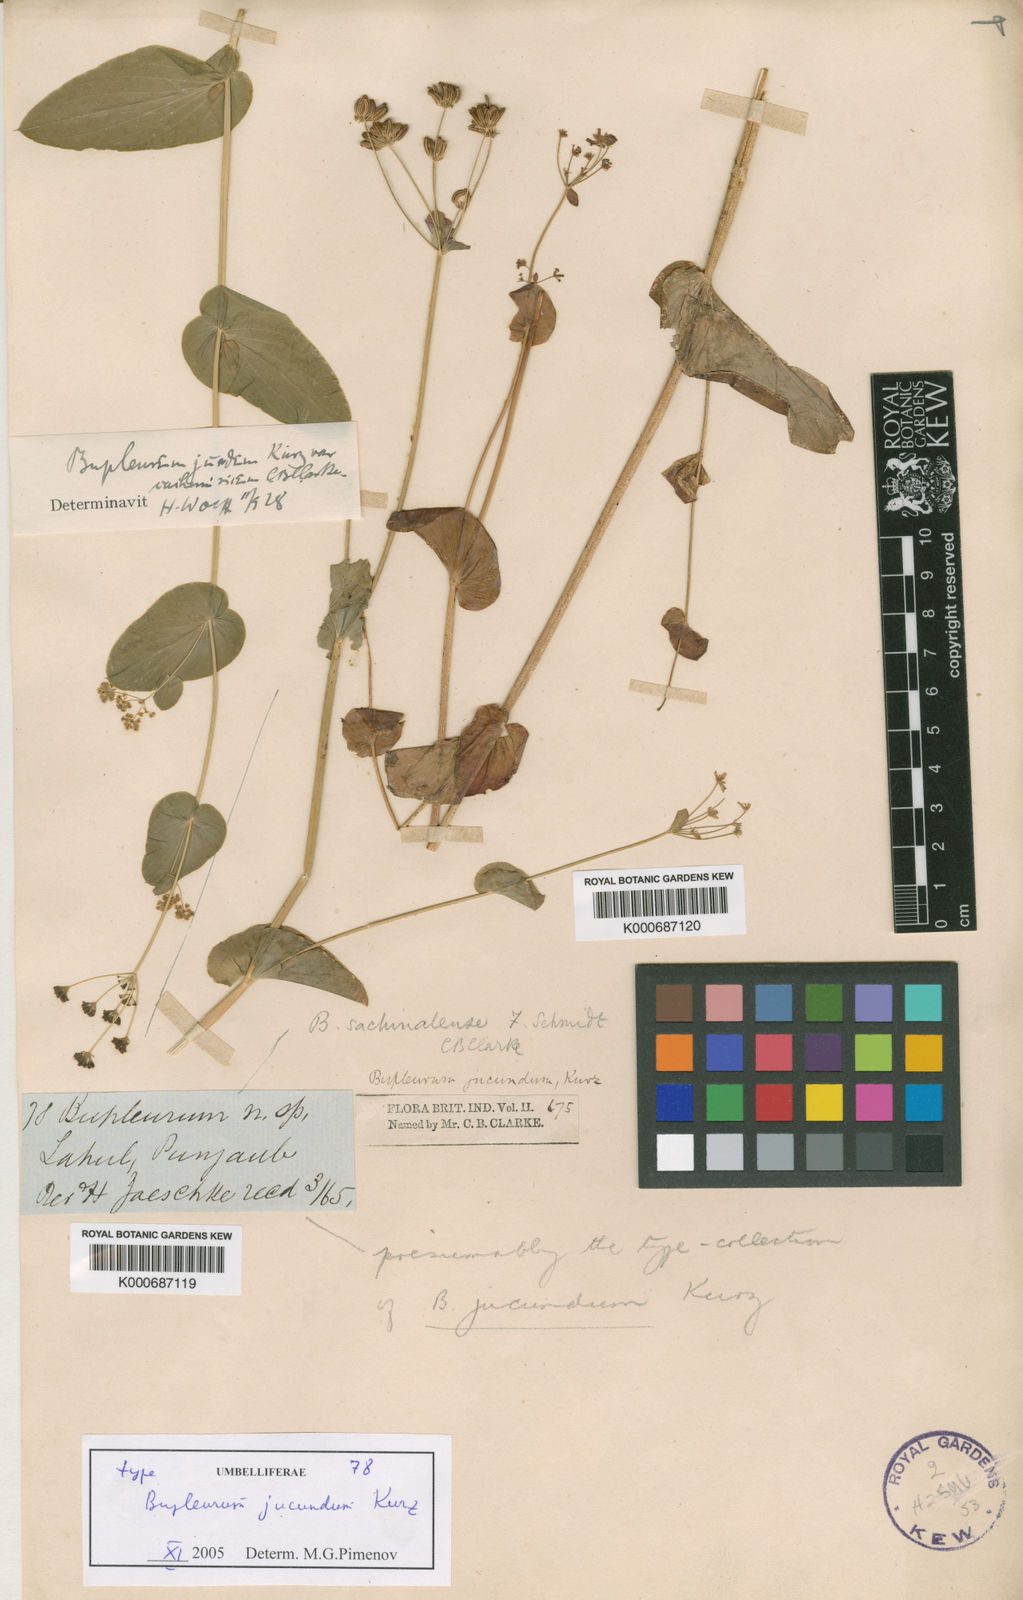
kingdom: Plantae
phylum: Tracheophyta
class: Magnoliopsida
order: Apiales
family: Apiaceae
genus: Bupleurum
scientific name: Bupleurum jucundum
